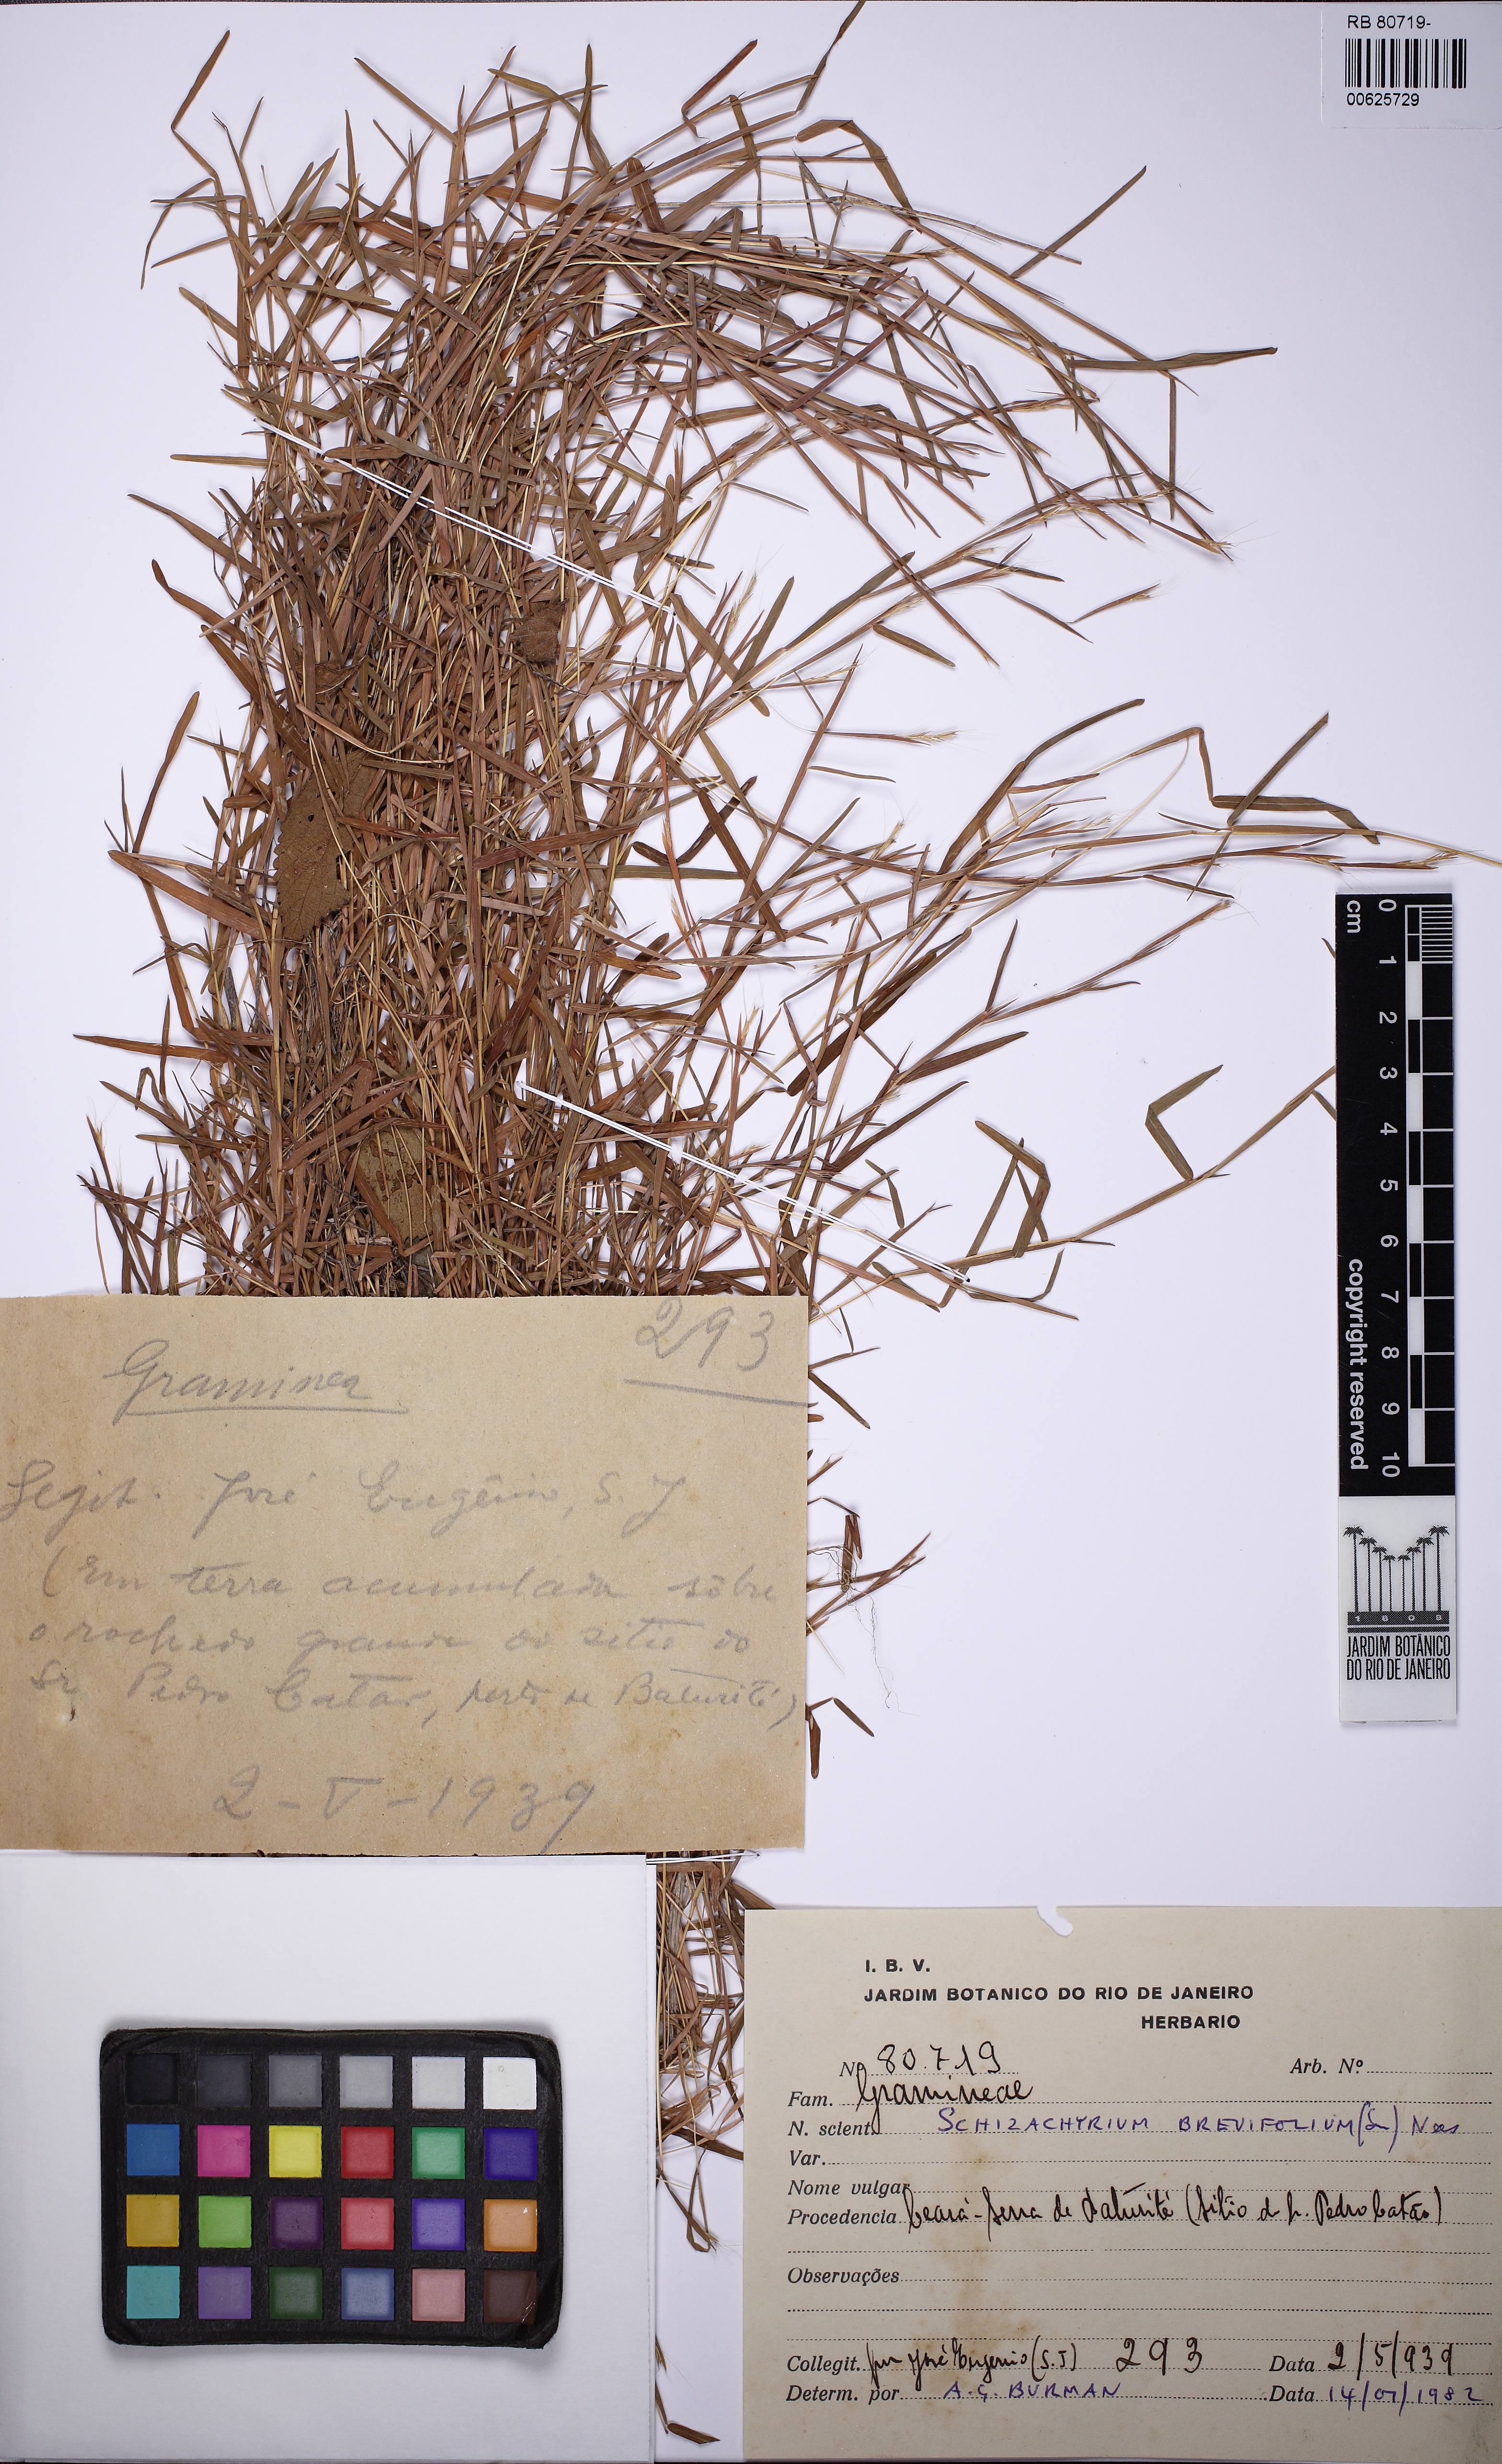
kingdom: Plantae
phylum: Tracheophyta
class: Liliopsida
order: Poales
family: Poaceae
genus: Schizachyrium
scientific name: Schizachyrium brevifolium
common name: Serillo dulce
